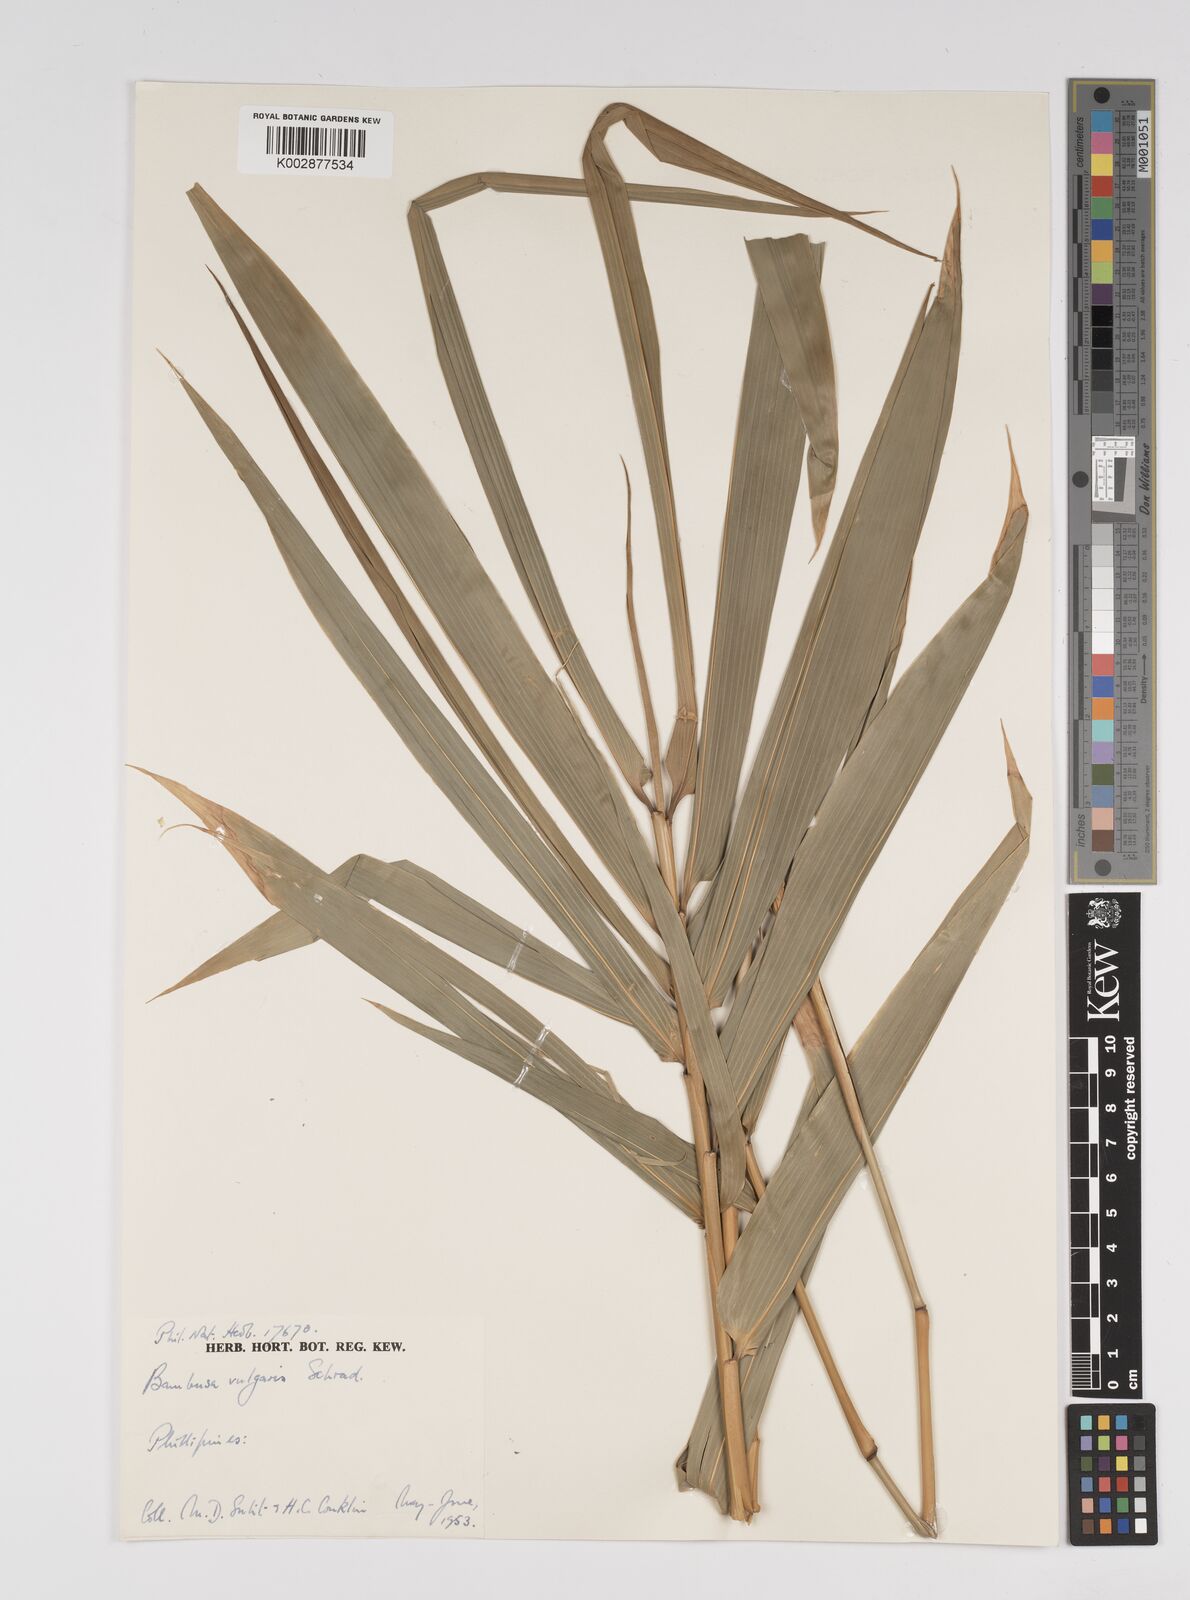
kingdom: Plantae
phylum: Tracheophyta
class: Liliopsida
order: Poales
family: Poaceae
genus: Bambusa
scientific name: Bambusa vulgaris
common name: Common bamboo
